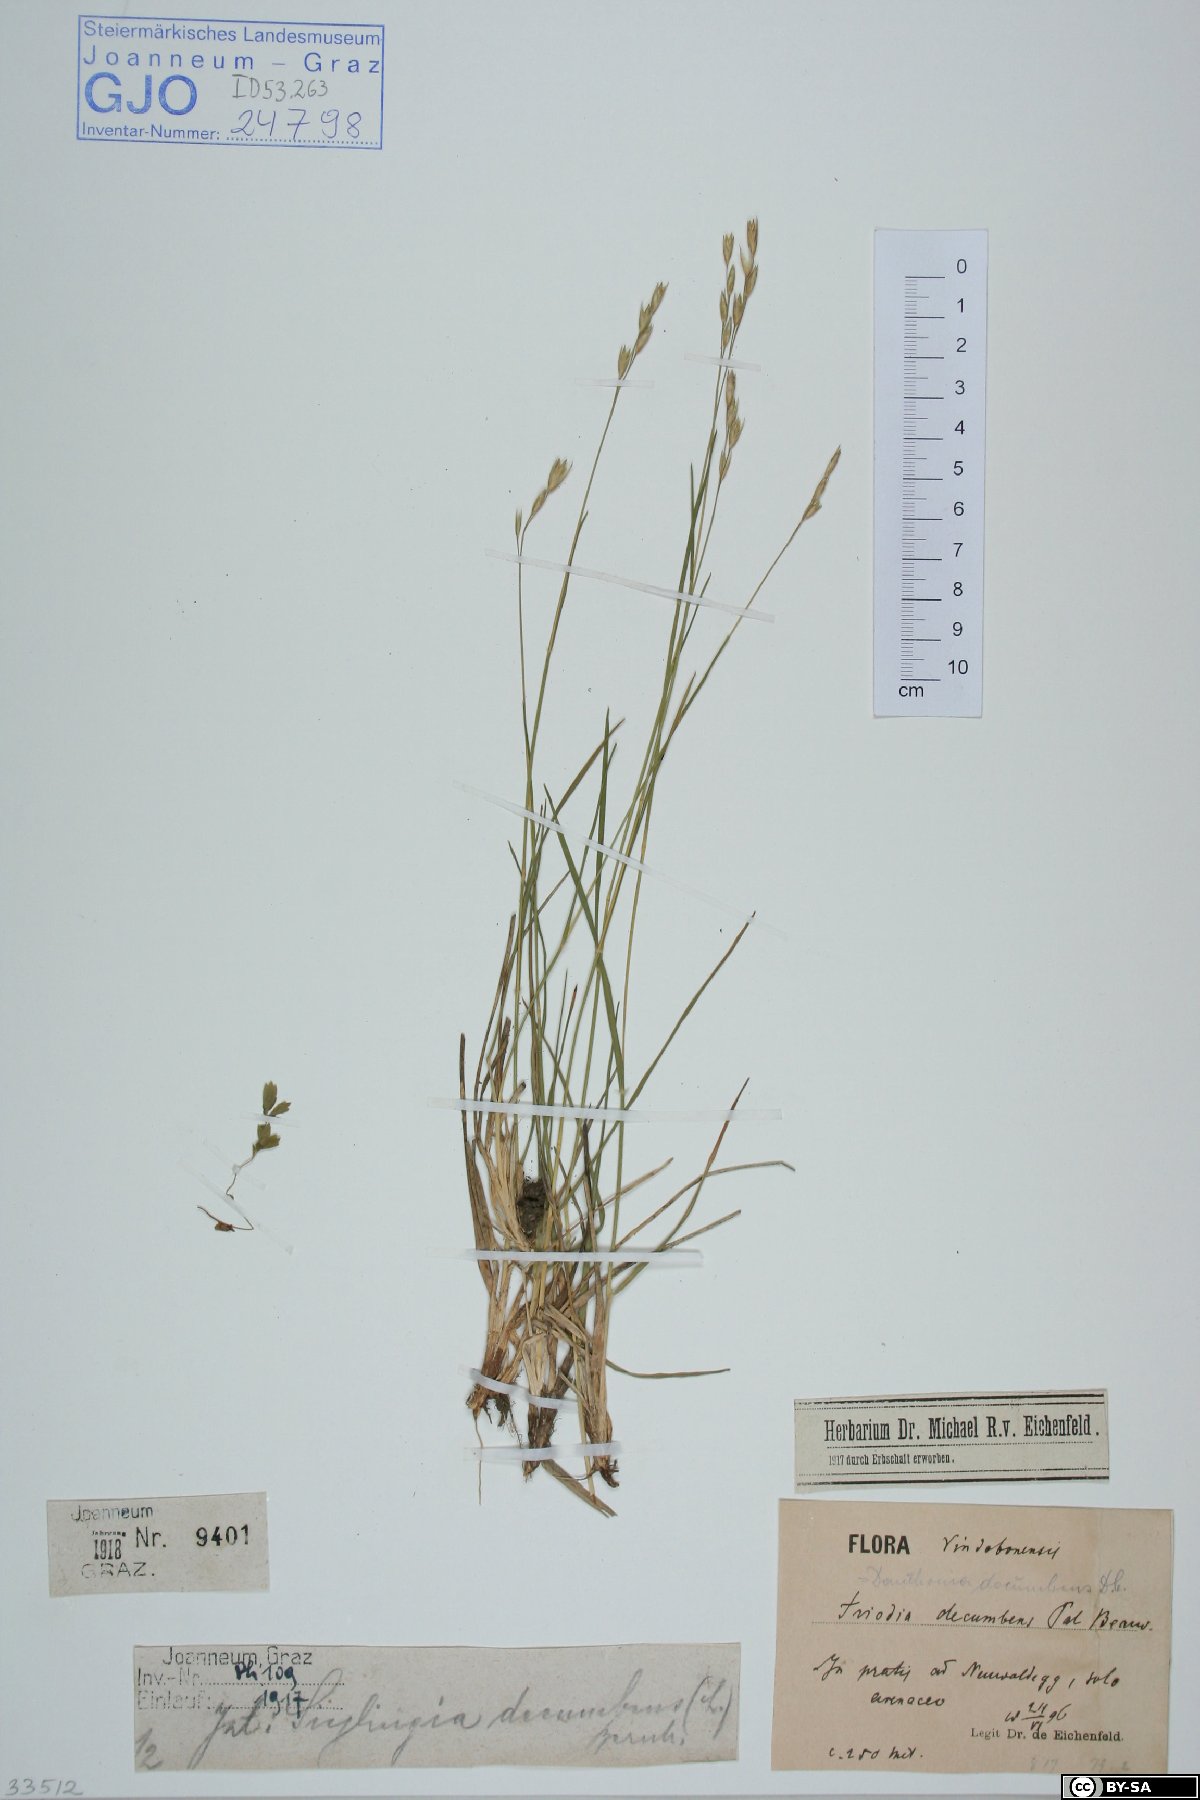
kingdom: Plantae
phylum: Tracheophyta
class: Liliopsida
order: Poales
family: Poaceae
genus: Danthonia
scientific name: Danthonia decumbens
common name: Common heathgrass
